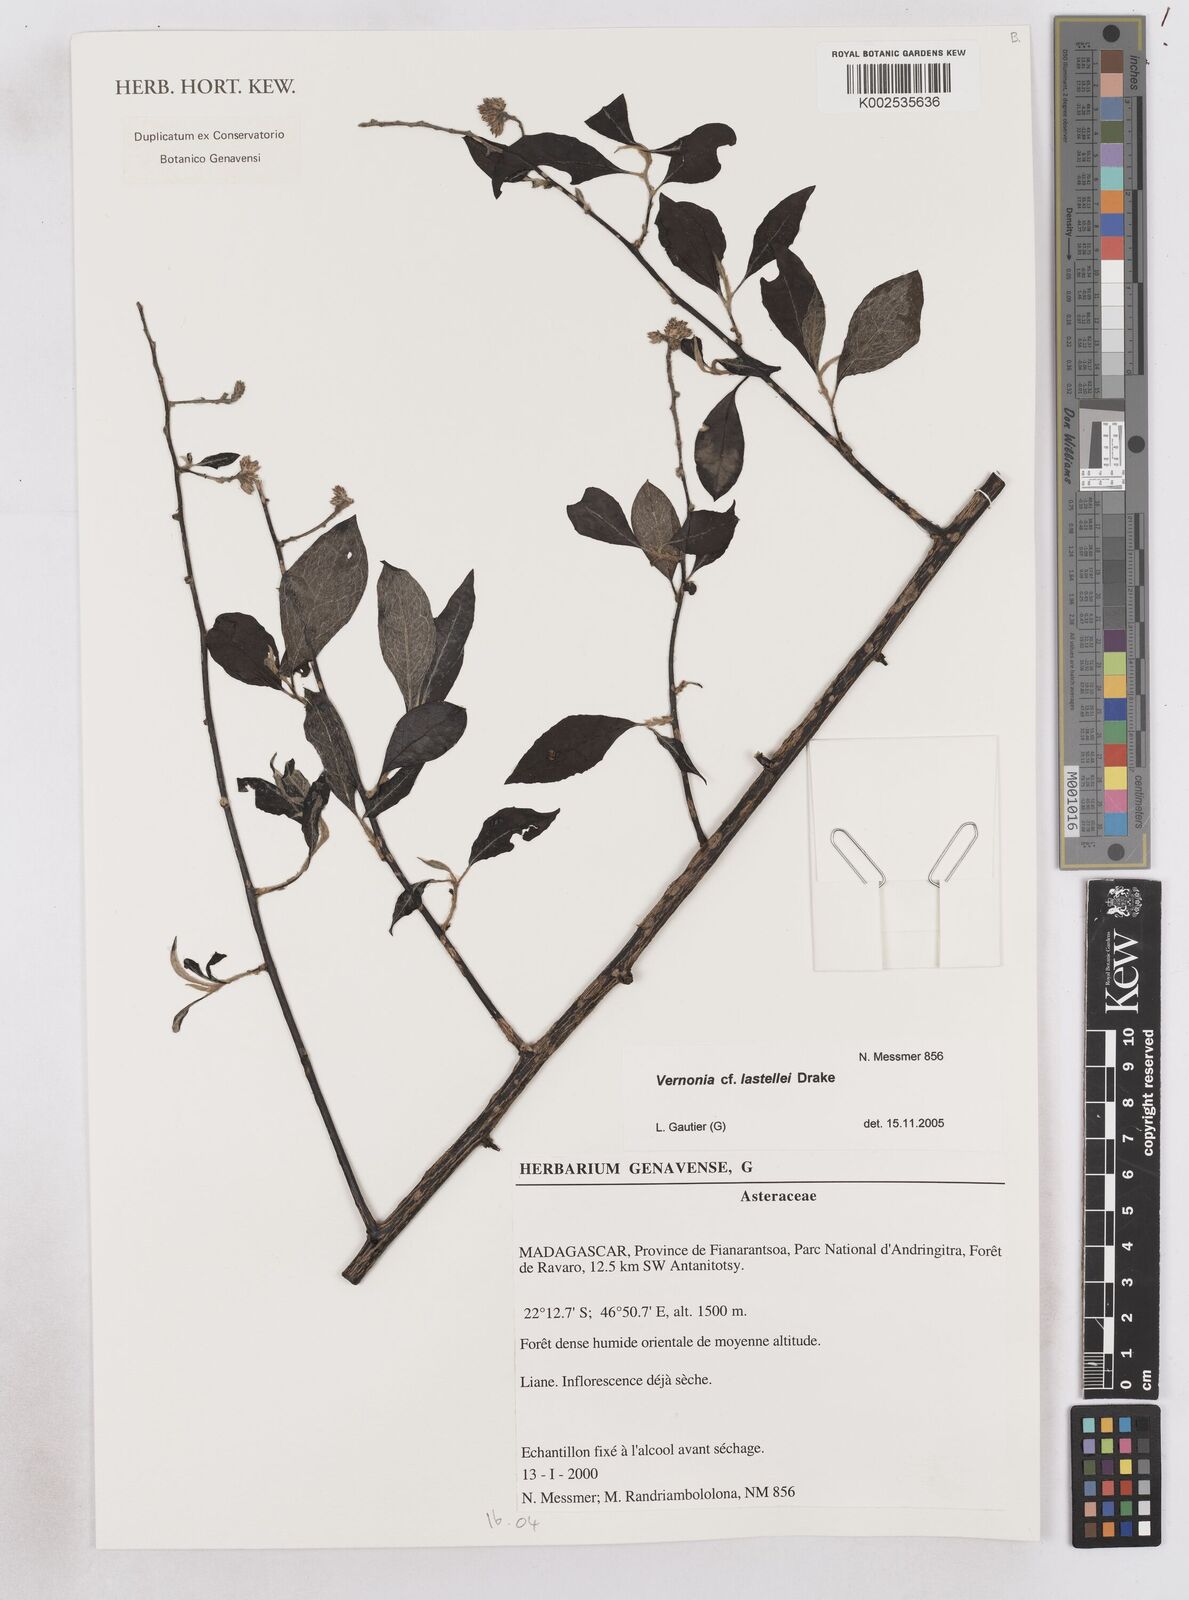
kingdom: Plantae
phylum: Tracheophyta
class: Magnoliopsida
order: Asterales
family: Asteraceae
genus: Distephanus
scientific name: Distephanus lastellei
